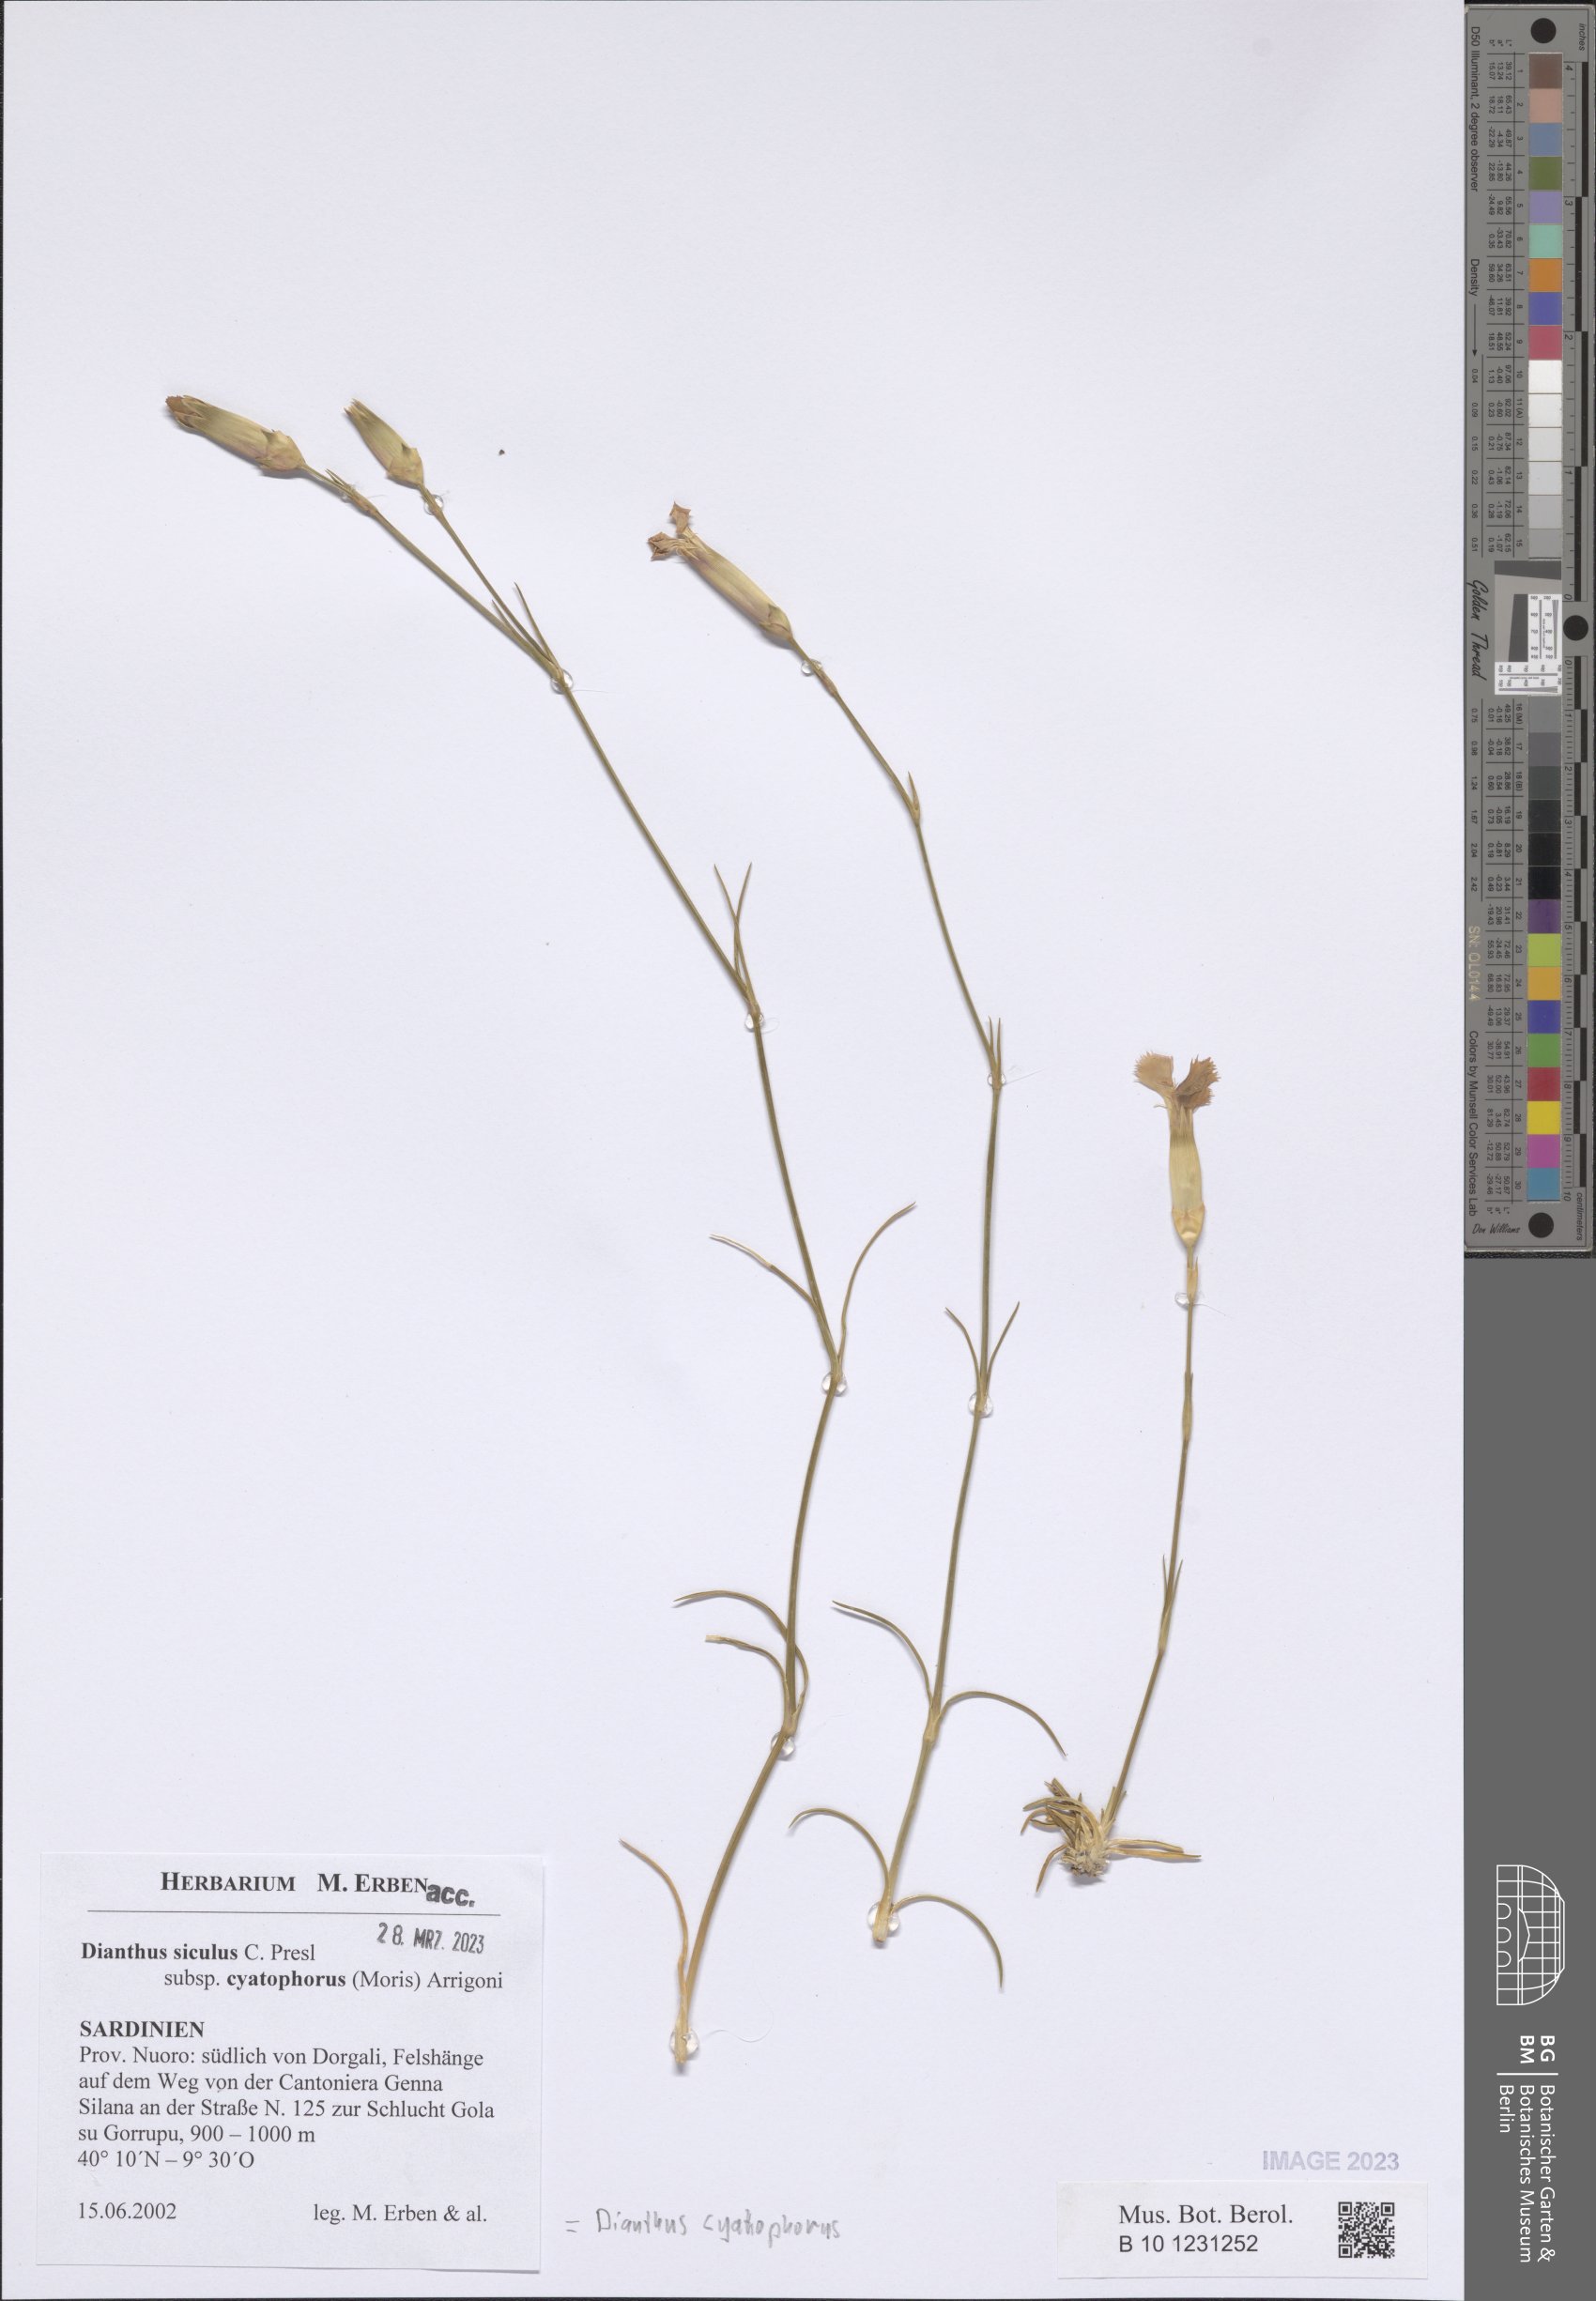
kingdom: Plantae
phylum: Tracheophyta
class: Magnoliopsida
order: Caryophyllales
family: Caryophyllaceae
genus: Dianthus
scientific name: Dianthus siculus
